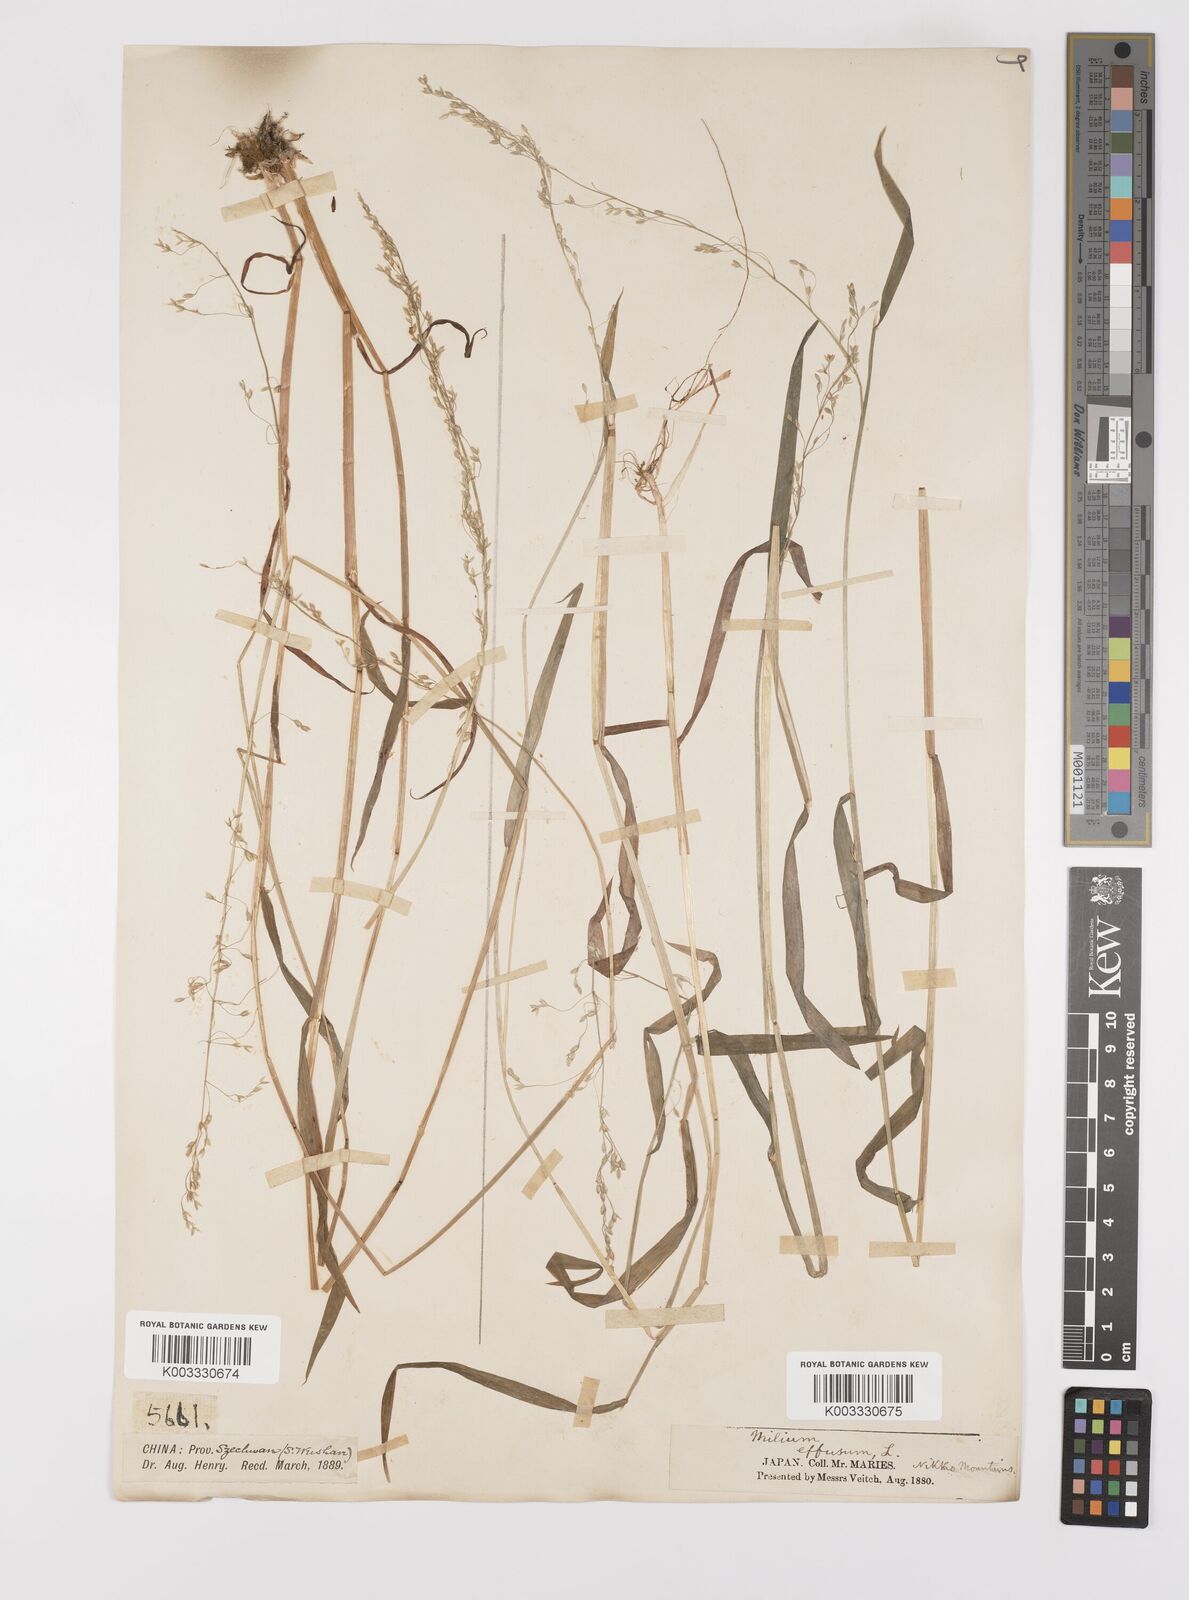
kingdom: Plantae
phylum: Tracheophyta
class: Liliopsida
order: Poales
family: Poaceae
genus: Milium
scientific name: Milium effusum
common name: Wood millet
